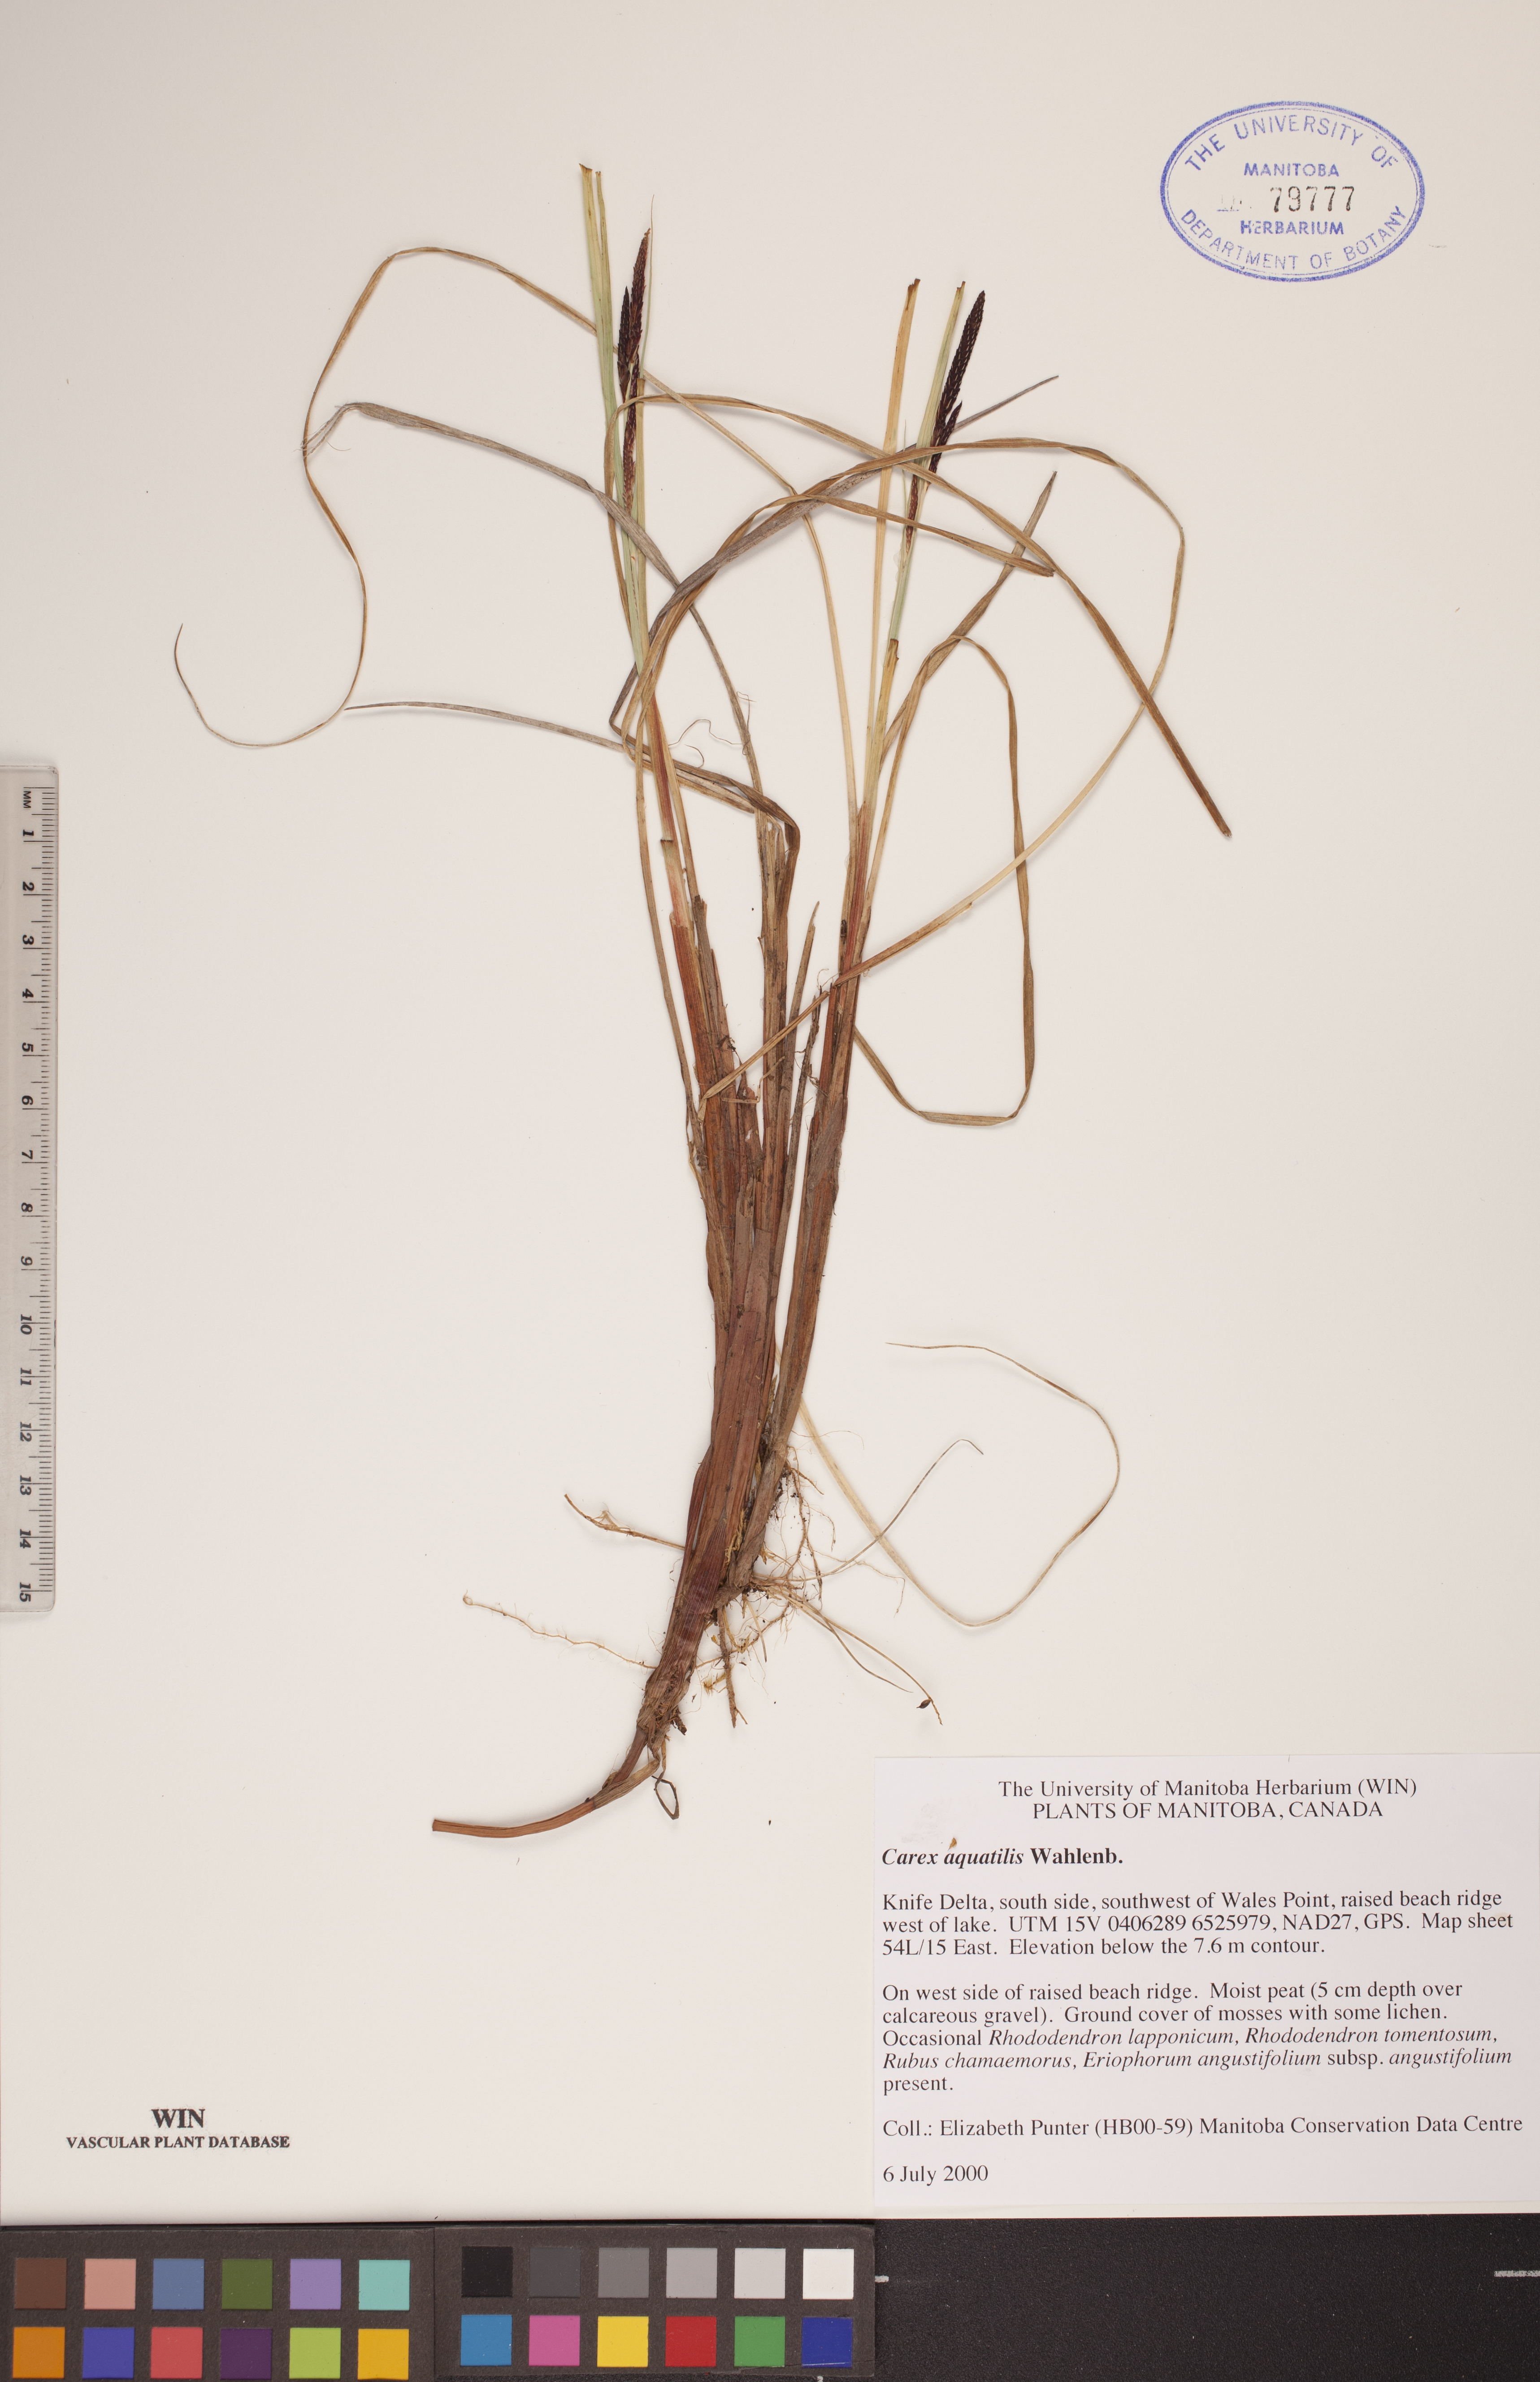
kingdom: Plantae
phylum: Tracheophyta
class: Liliopsida
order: Poales
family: Cyperaceae
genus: Carex
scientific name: Carex aquatilis
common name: Water sedge
